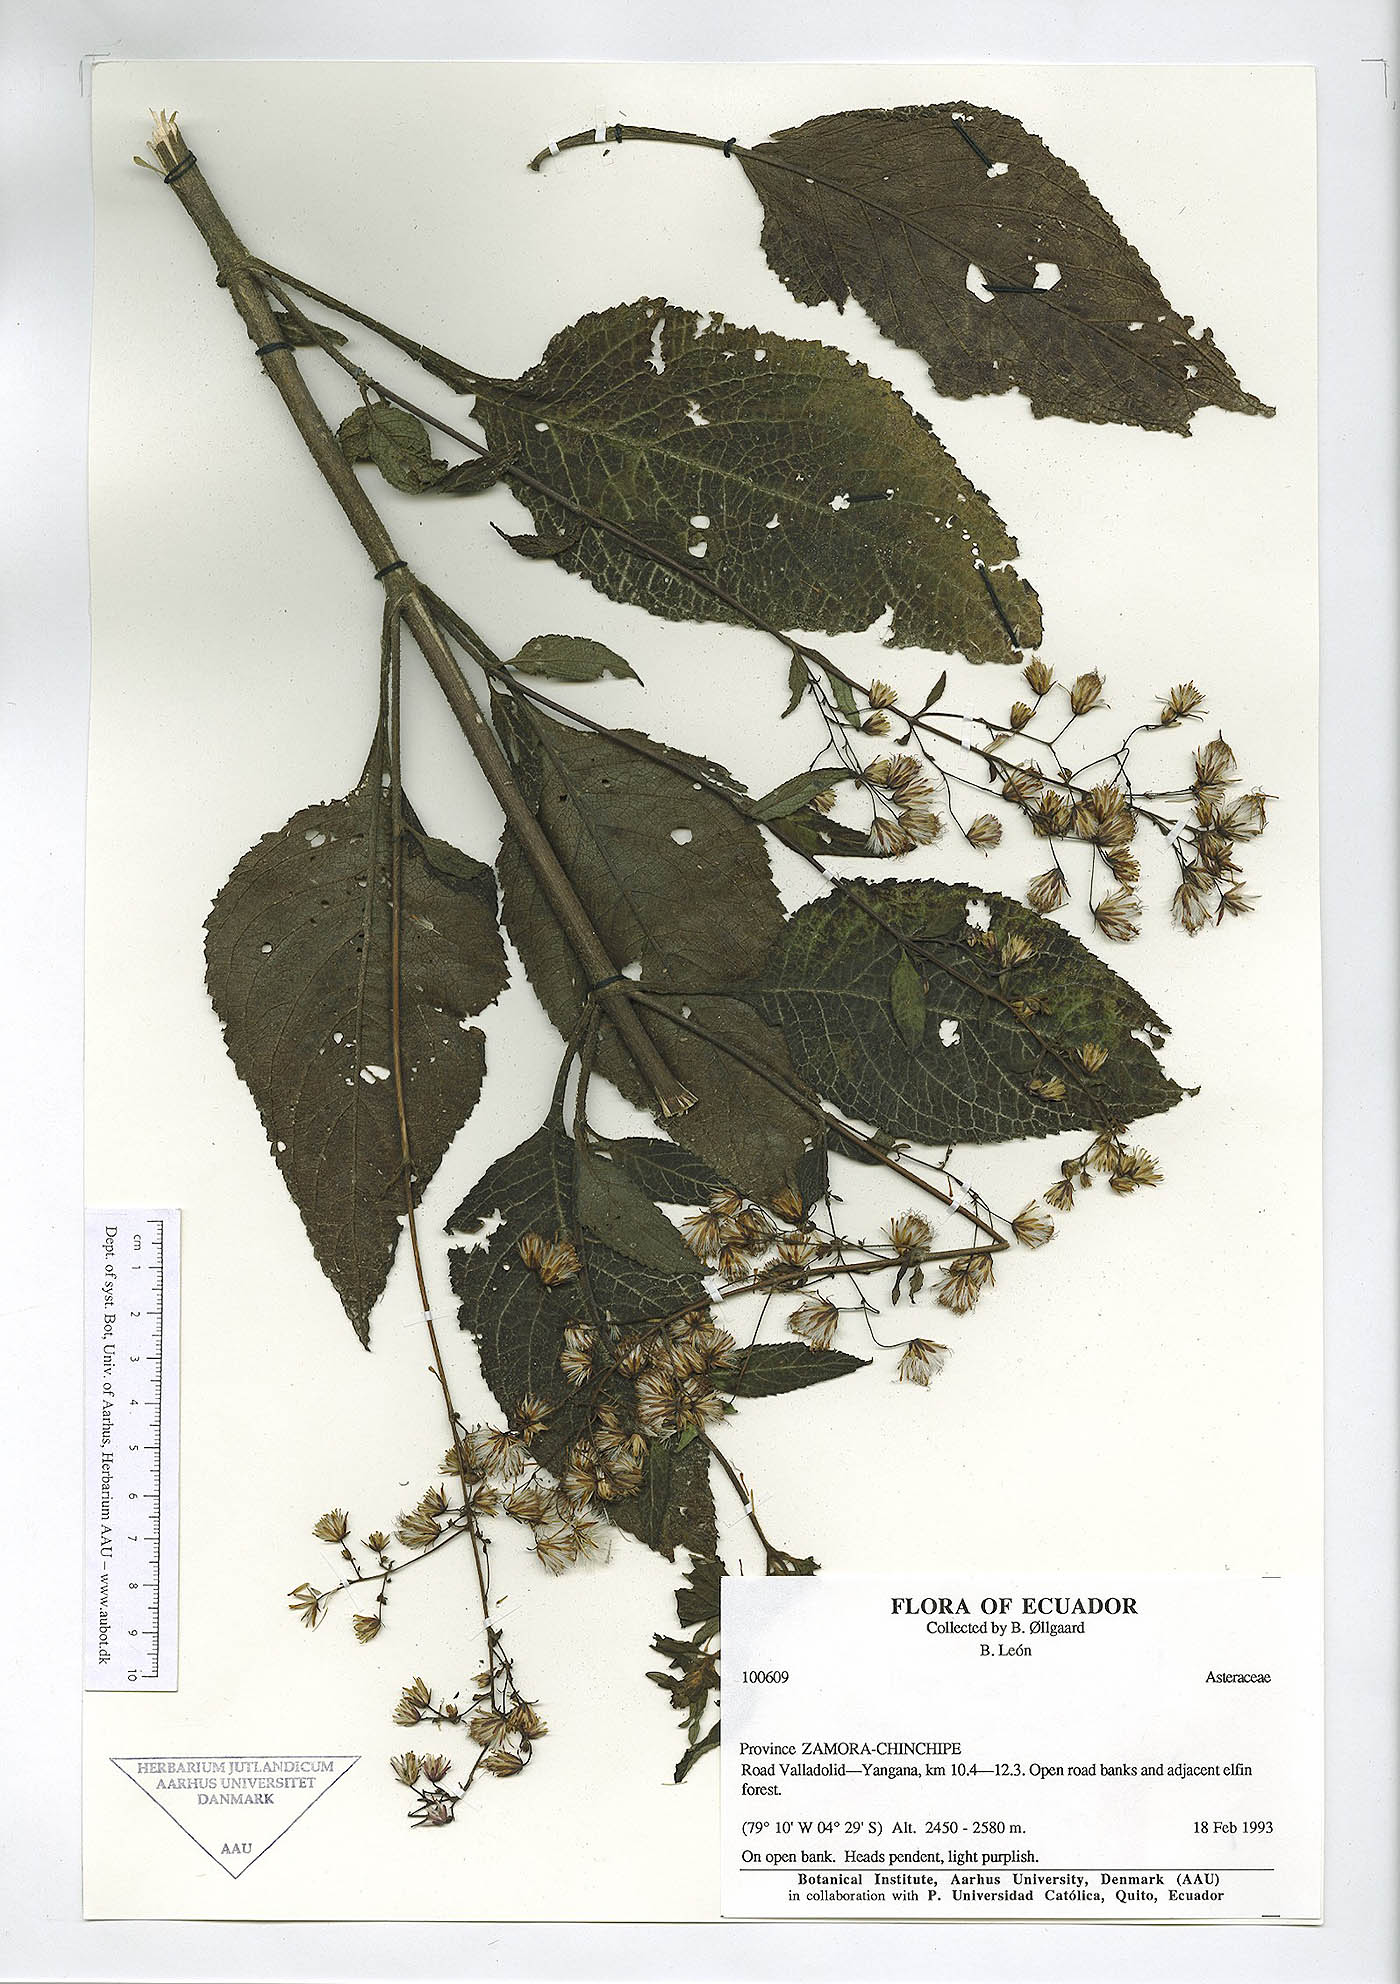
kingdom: Plantae
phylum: Tracheophyta
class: Magnoliopsida
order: Asterales
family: Asteraceae
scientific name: Asteraceae
